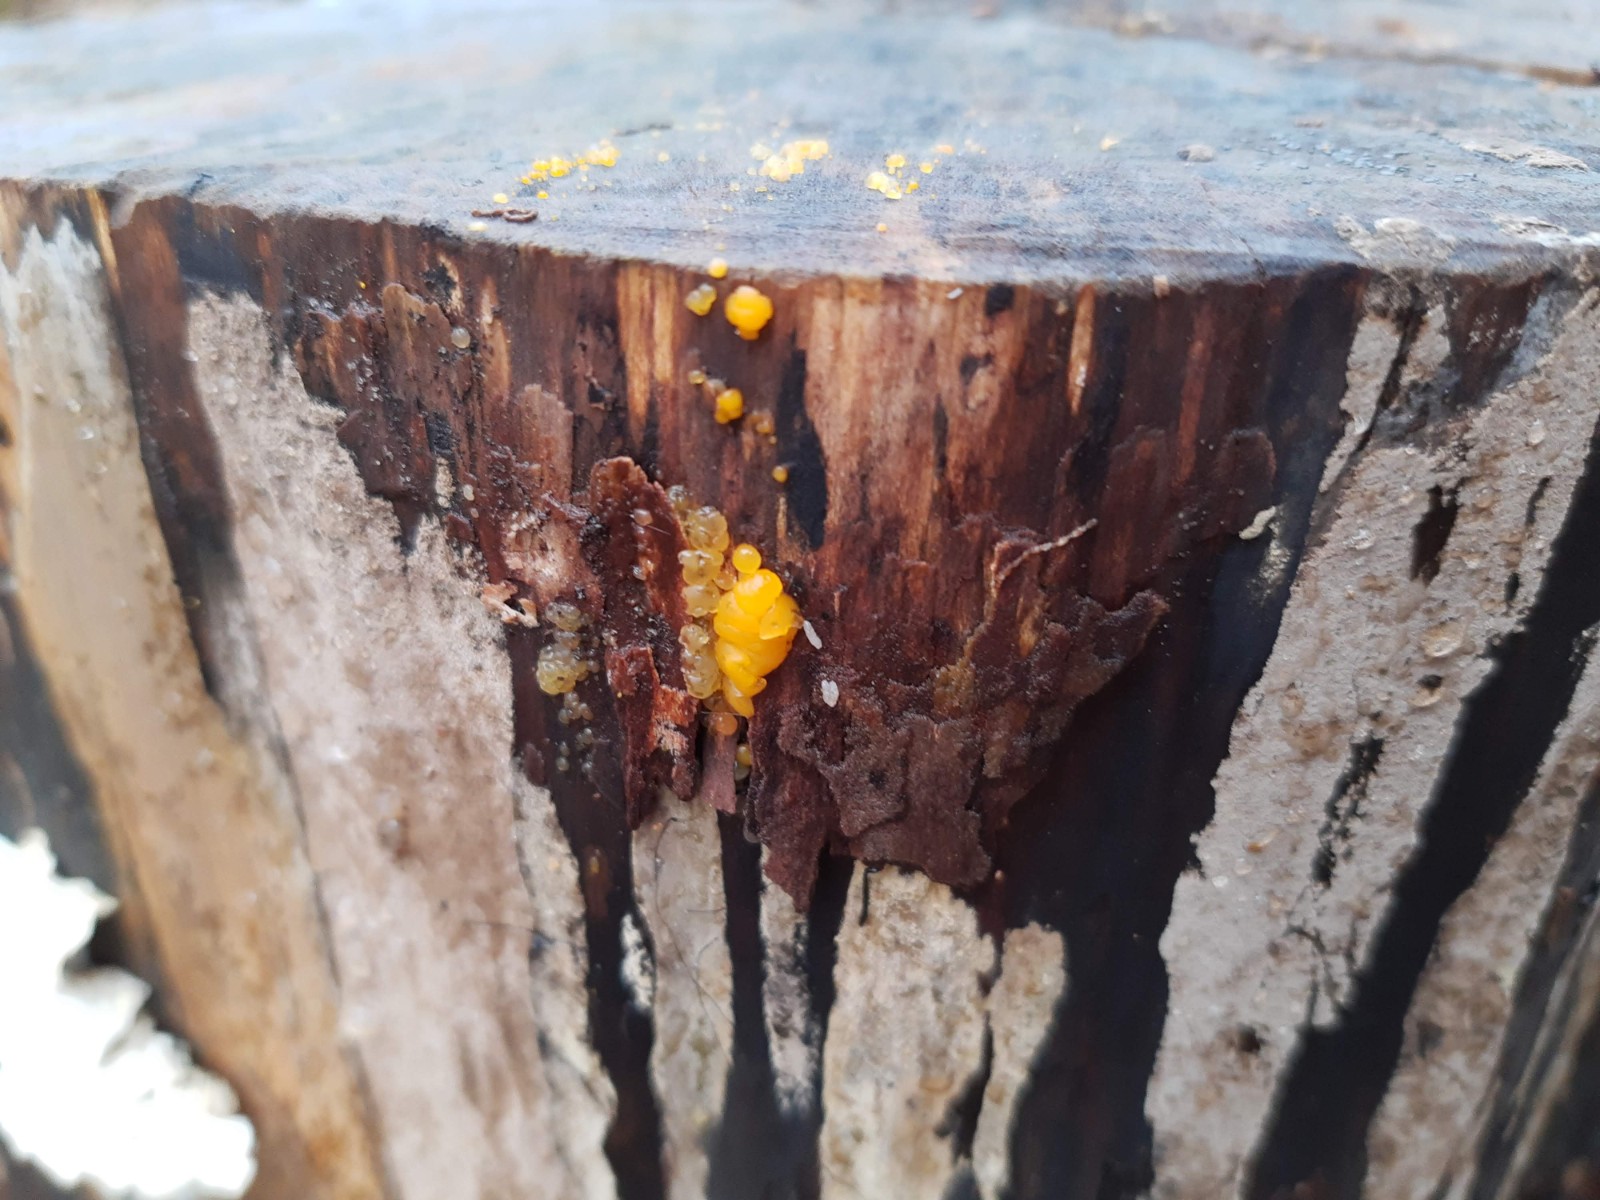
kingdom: Fungi
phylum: Basidiomycota
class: Dacrymycetes
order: Dacrymycetales
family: Dacrymycetaceae
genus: Dacrymyces
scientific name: Dacrymyces stillatus
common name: almindelig tåresvamp
